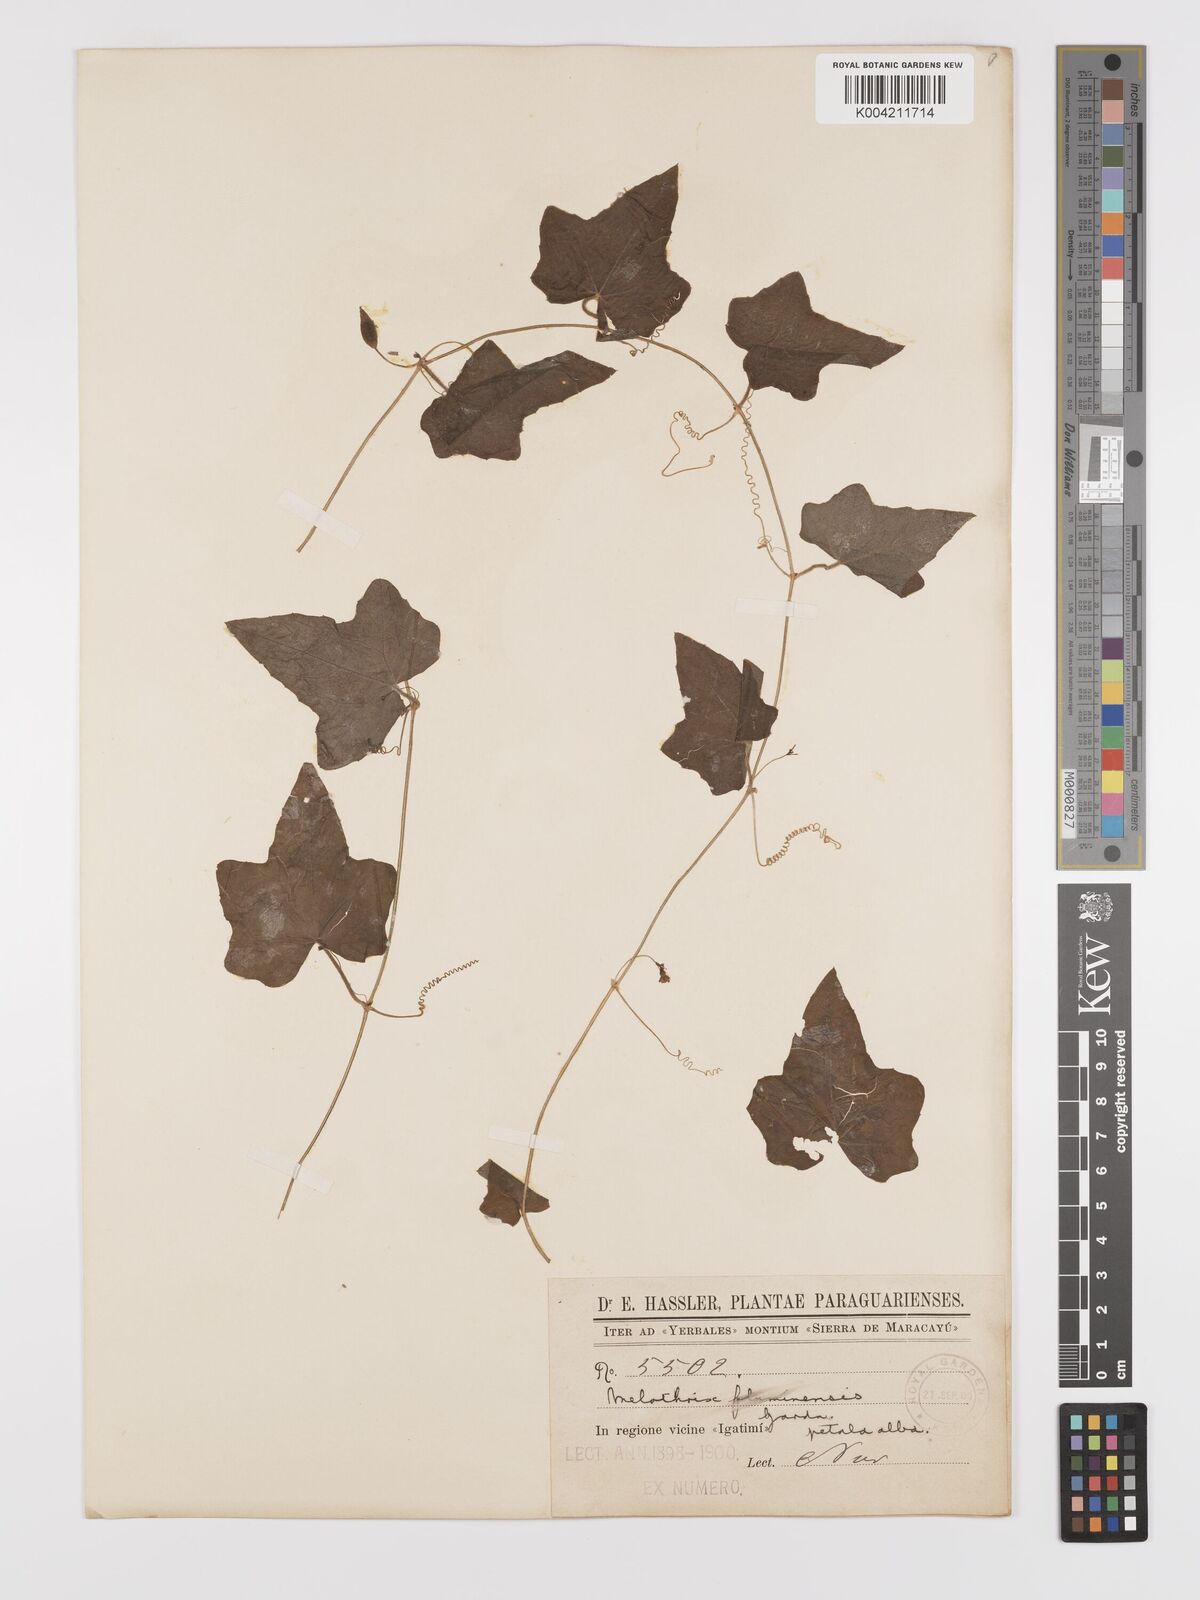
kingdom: Plantae
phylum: Tracheophyta
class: Magnoliopsida
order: Cucurbitales
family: Cucurbitaceae
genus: Melothria
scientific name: Melothria warmingii
